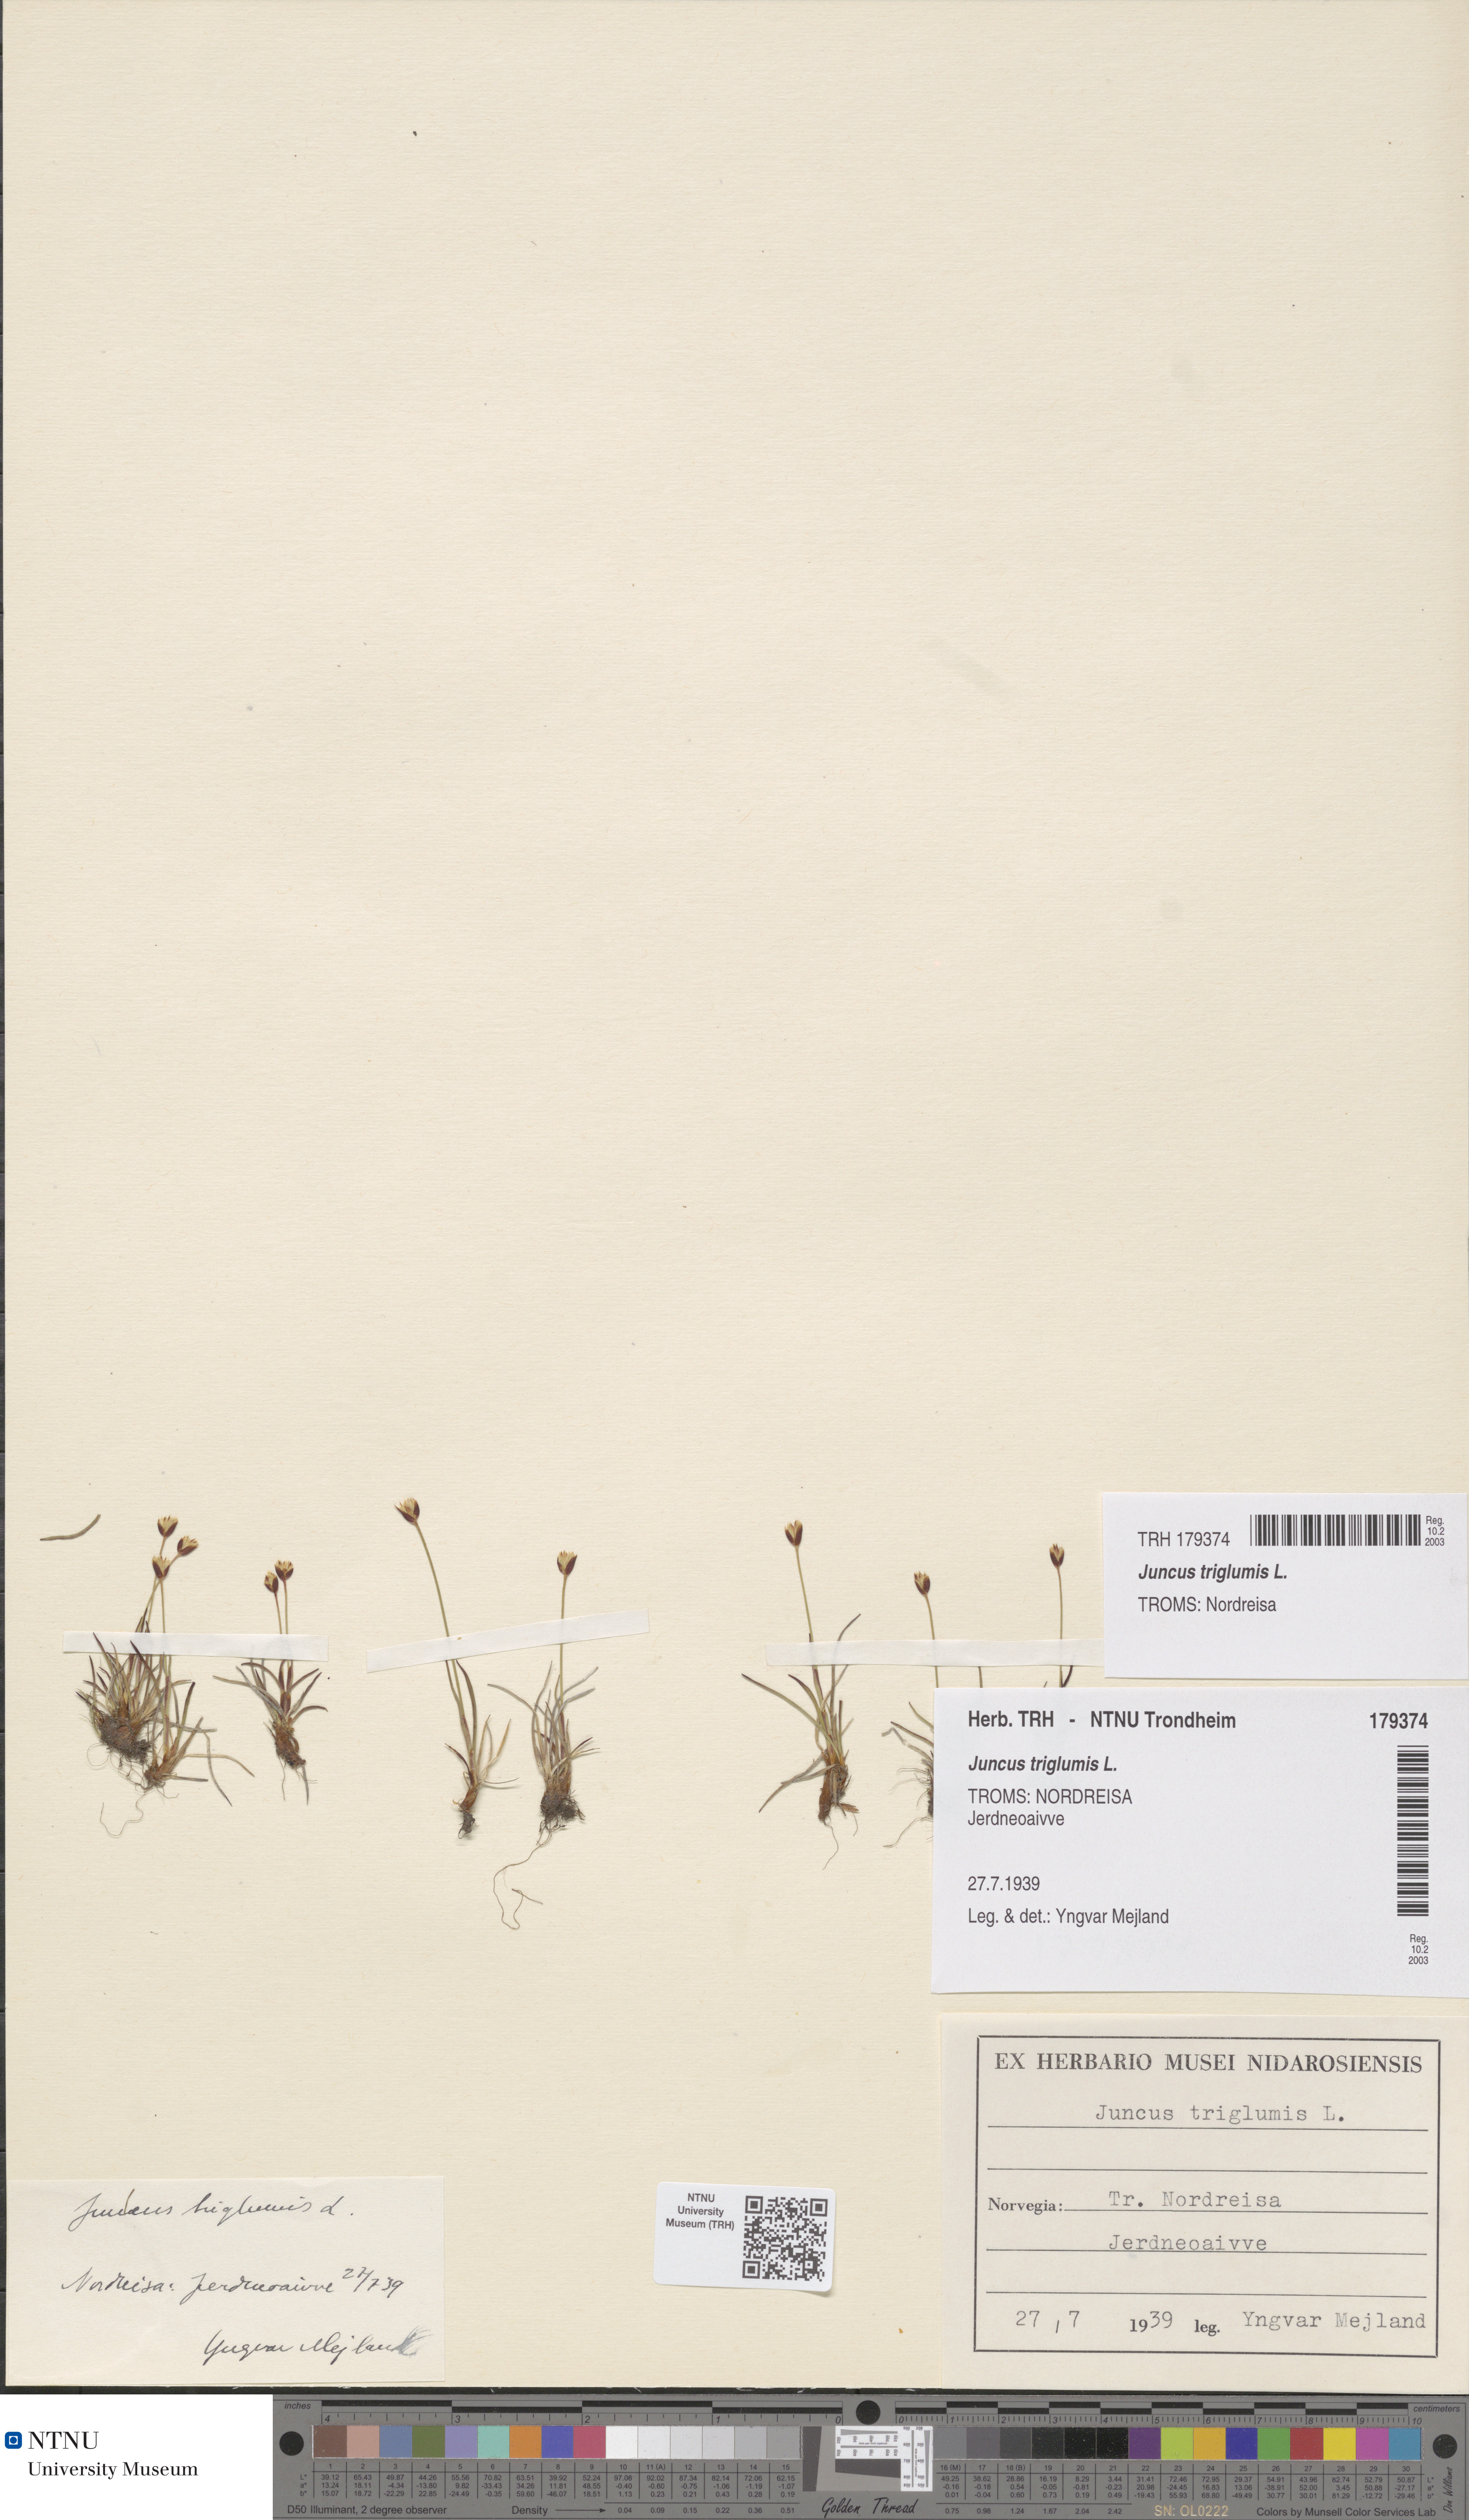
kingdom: Plantae
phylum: Tracheophyta
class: Liliopsida
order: Poales
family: Juncaceae
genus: Juncus
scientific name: Juncus triglumis
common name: Three-flowered rush
